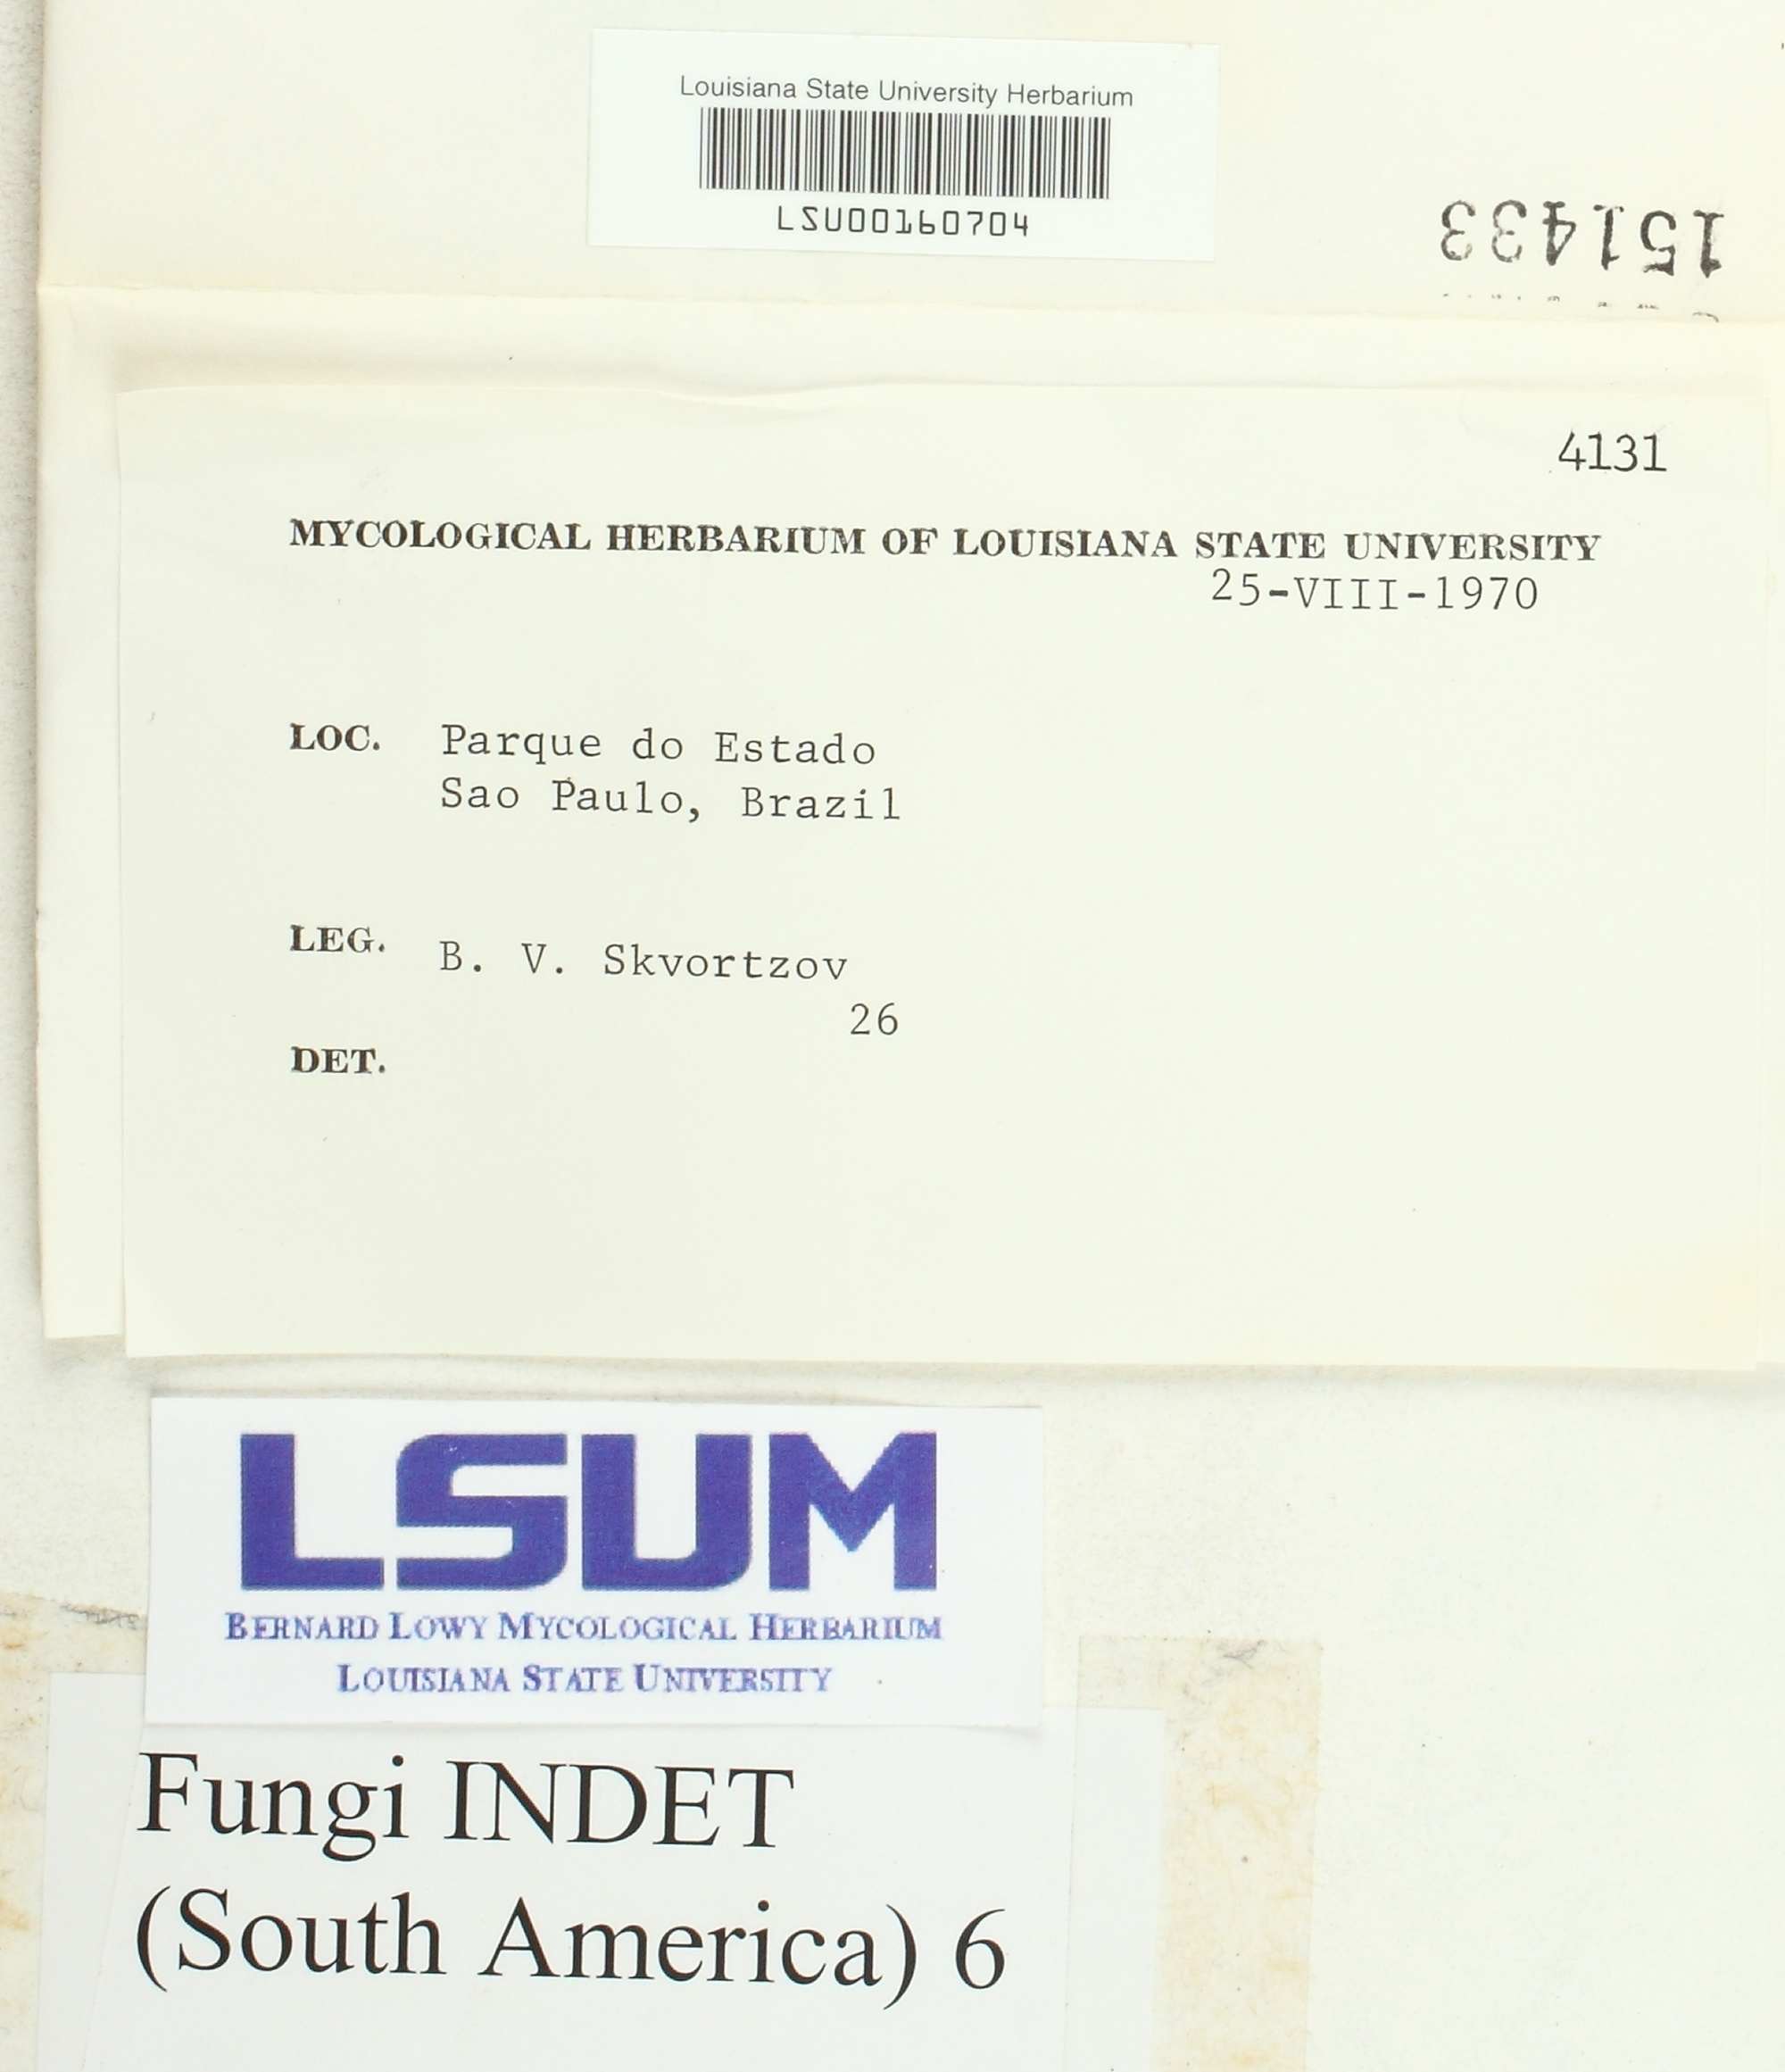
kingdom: Fungi
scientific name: Fungi
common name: Fungi
